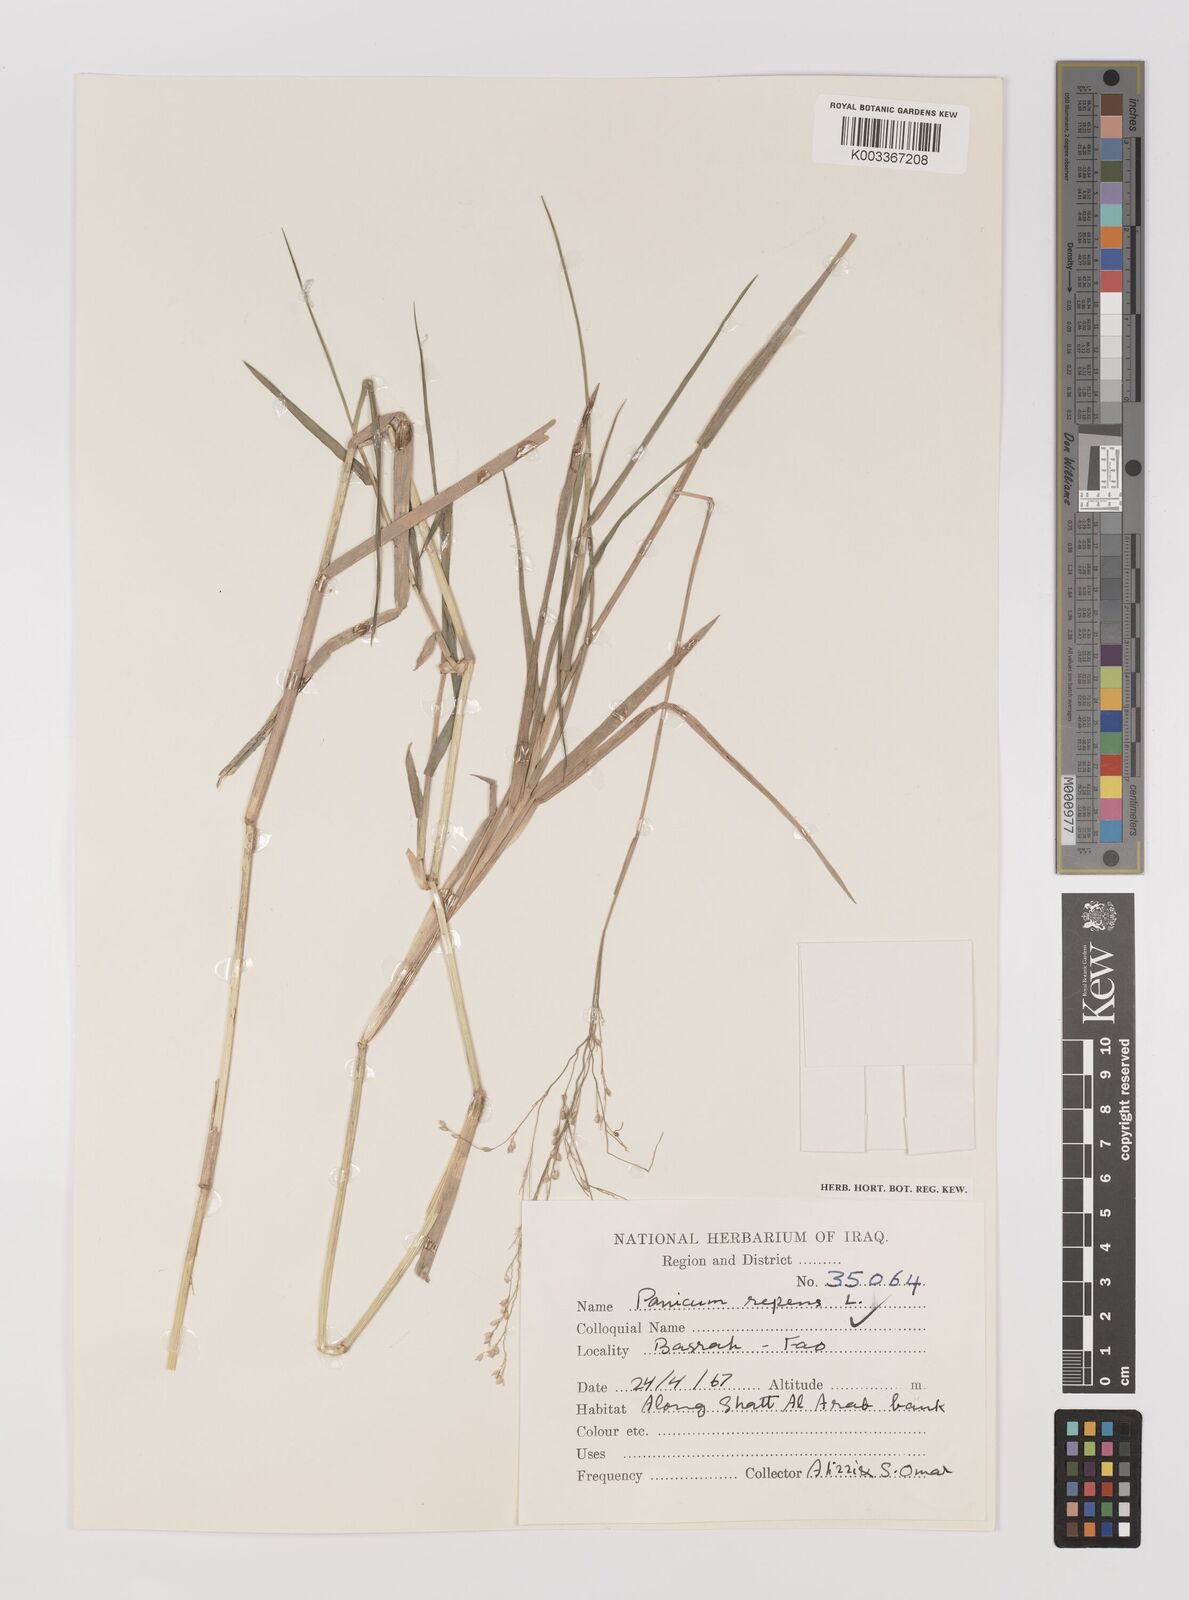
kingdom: Plantae
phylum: Tracheophyta
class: Liliopsida
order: Poales
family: Poaceae
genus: Panicum
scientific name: Panicum repens
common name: Torpedo grass
